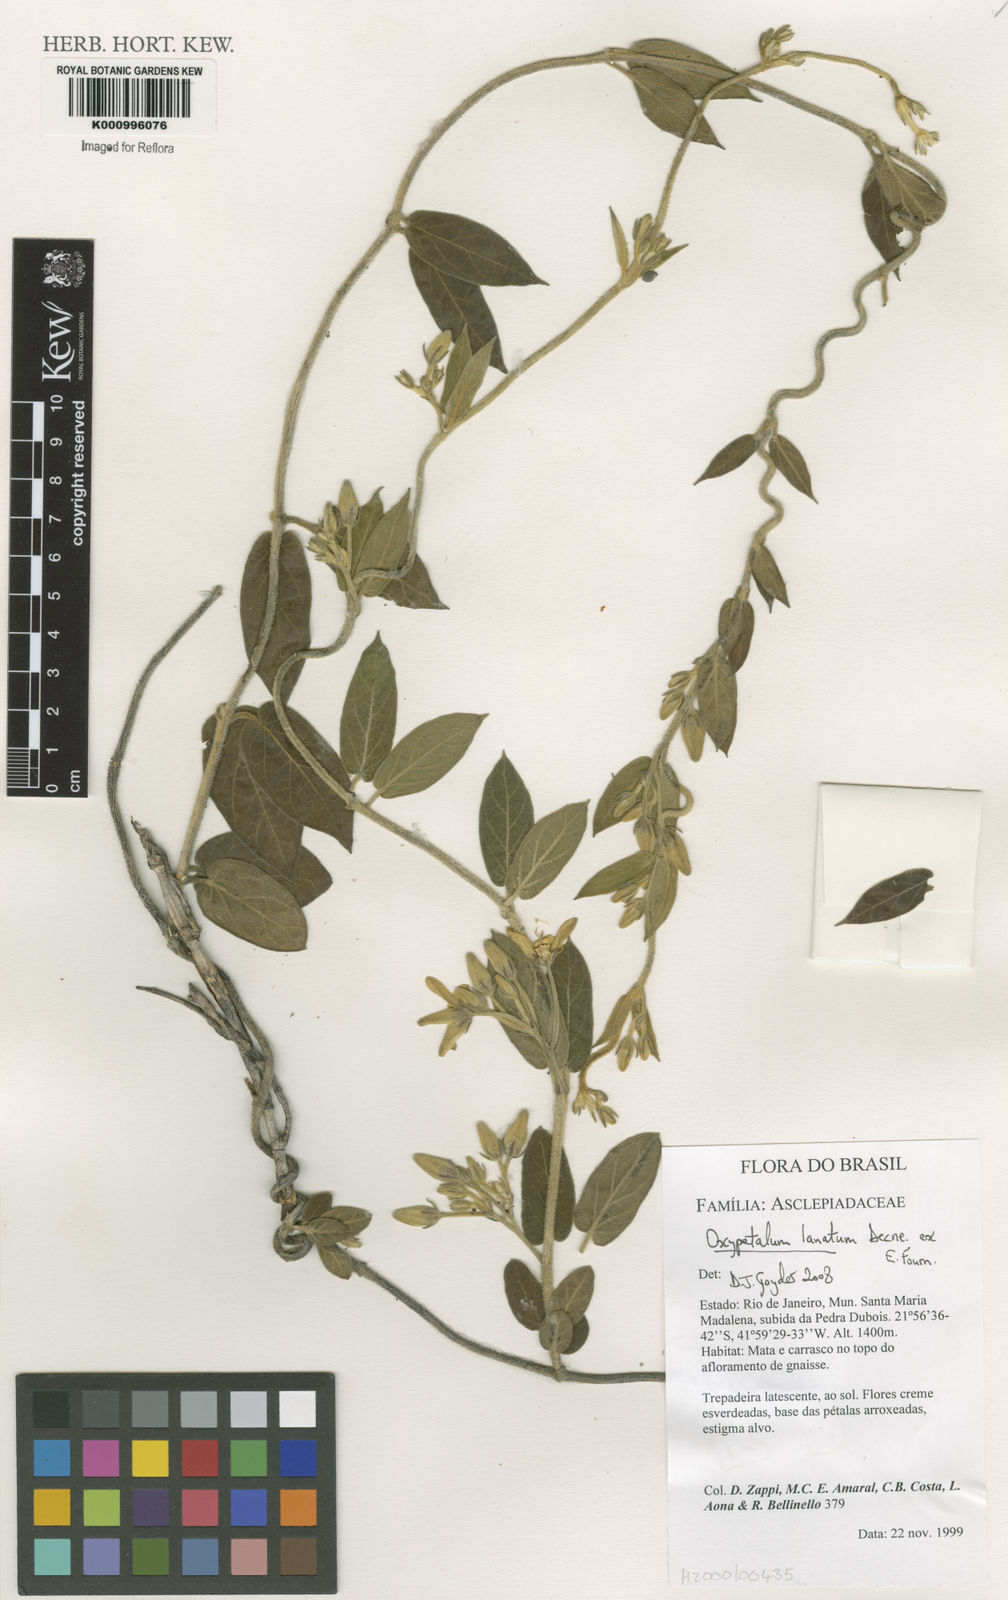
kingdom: Plantae
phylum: Tracheophyta
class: Magnoliopsida
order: Gentianales
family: Apocynaceae
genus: Oxypetalum
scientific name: Oxypetalum lanatum
